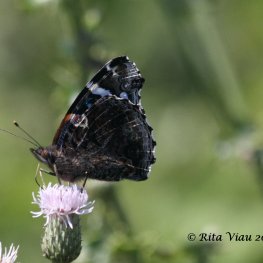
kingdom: Animalia
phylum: Arthropoda
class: Insecta
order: Lepidoptera
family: Nymphalidae
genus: Vanessa
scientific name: Vanessa atalanta
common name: Red Admiral
